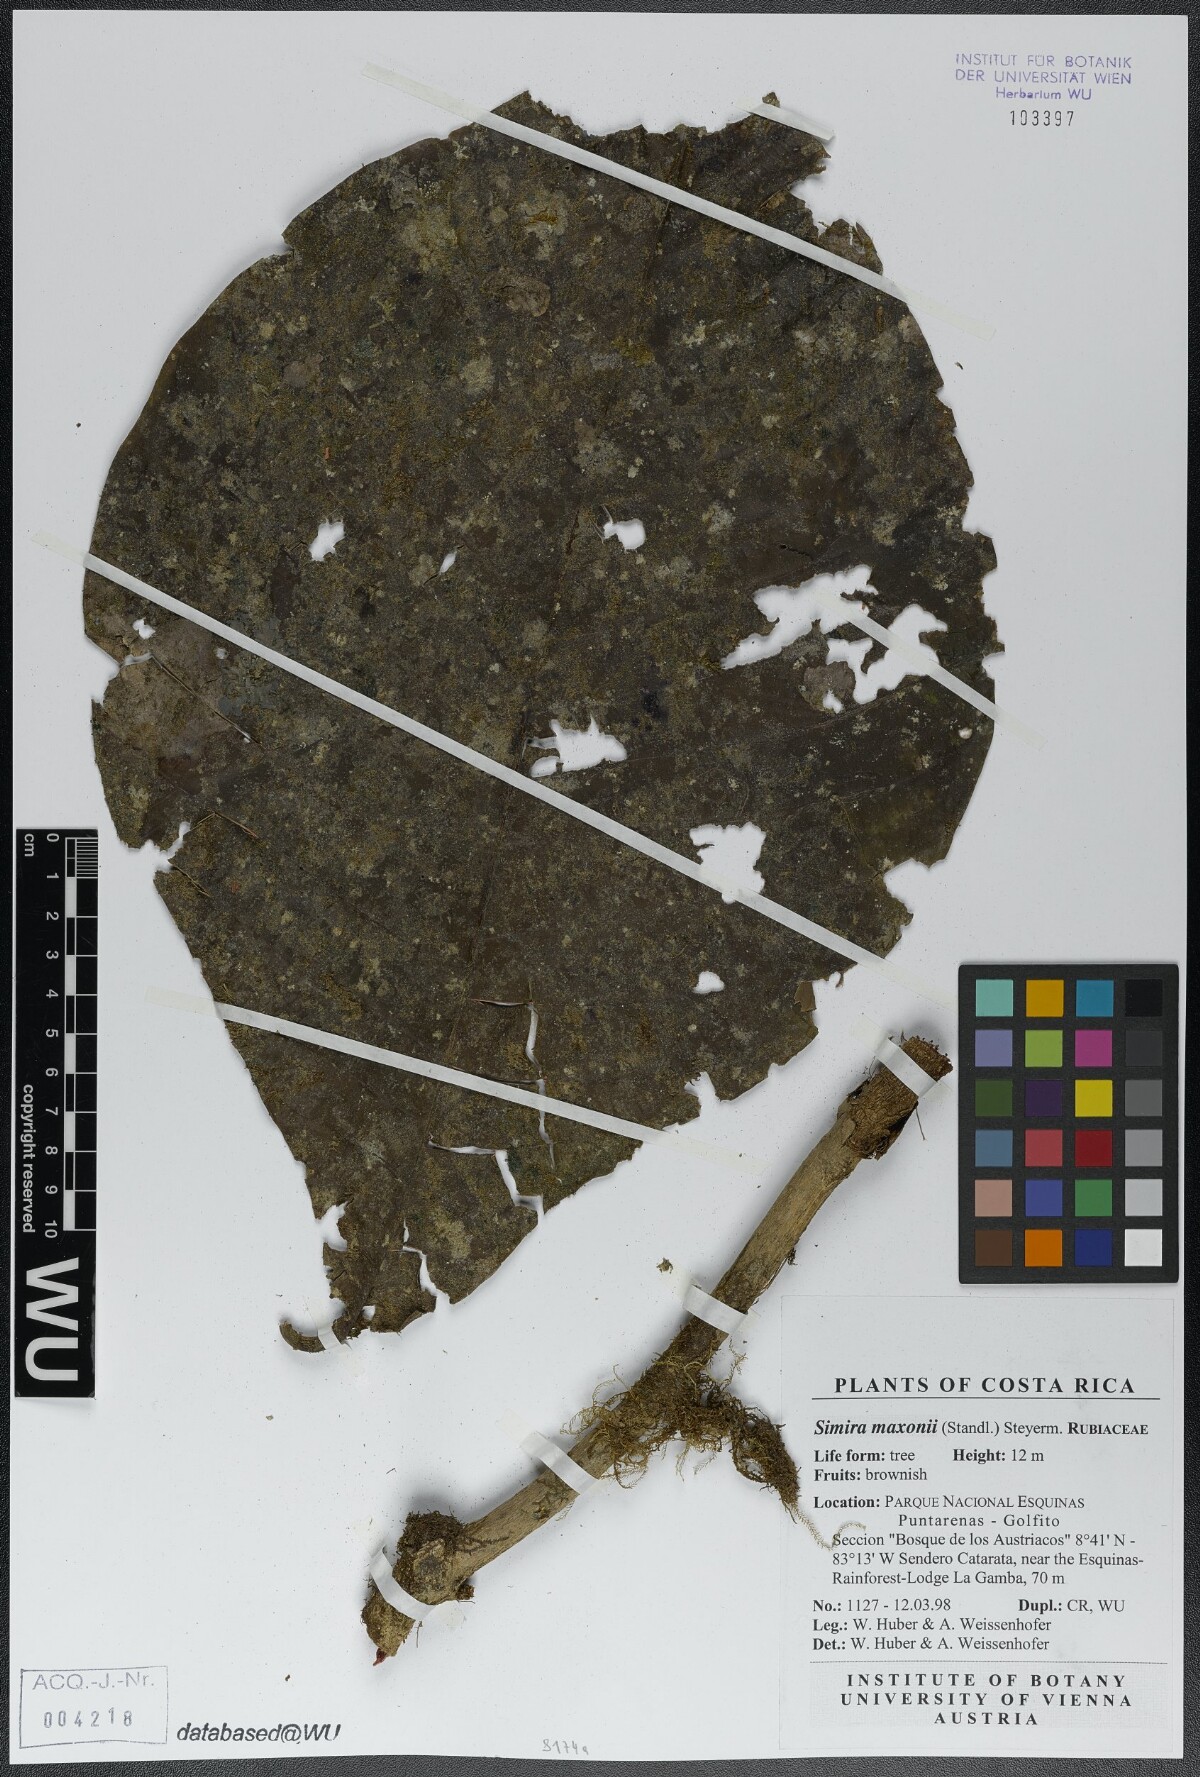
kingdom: Plantae
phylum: Tracheophyta
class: Magnoliopsida
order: Gentianales
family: Rubiaceae
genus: Simira
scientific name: Simira maxonii
